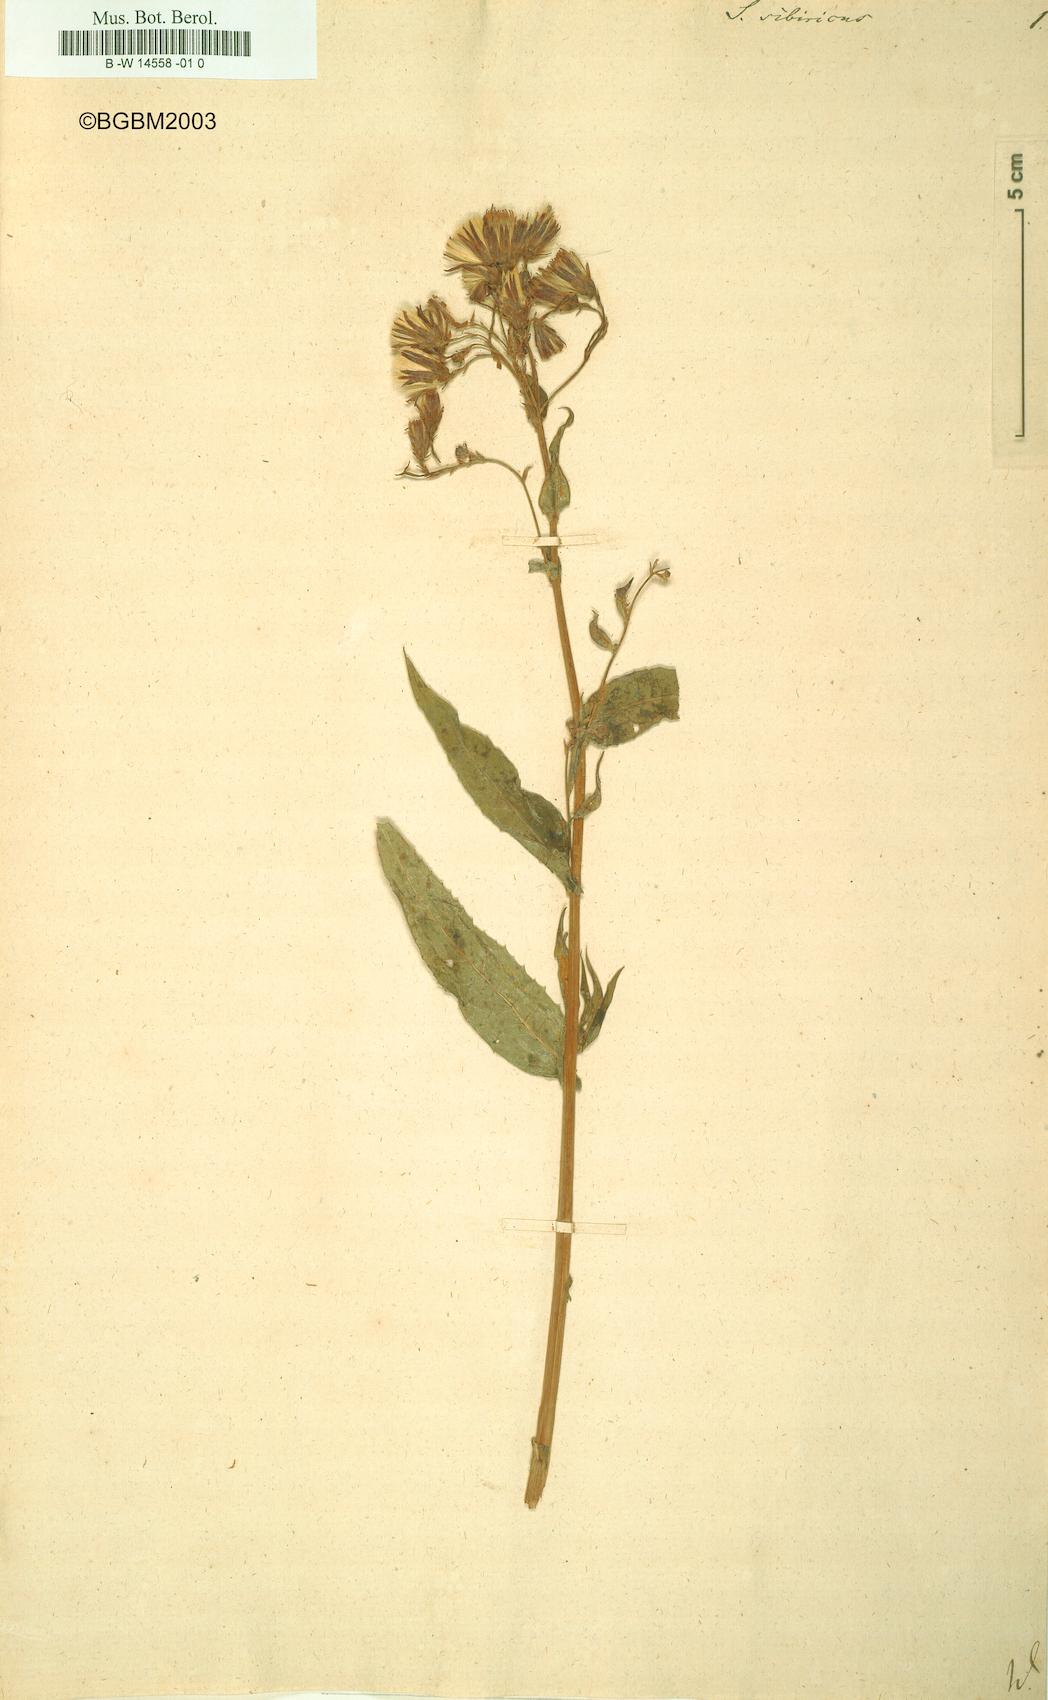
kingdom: Plantae
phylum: Tracheophyta
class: Magnoliopsida
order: Asterales
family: Asteraceae
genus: Lactuca
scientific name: Lactuca
